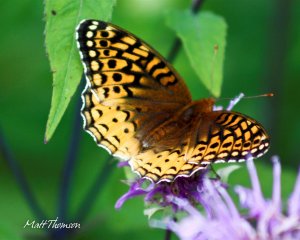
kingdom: Animalia
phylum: Arthropoda
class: Insecta
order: Lepidoptera
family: Nymphalidae
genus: Speyeria
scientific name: Speyeria cybele
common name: Great Spangled Fritillary
